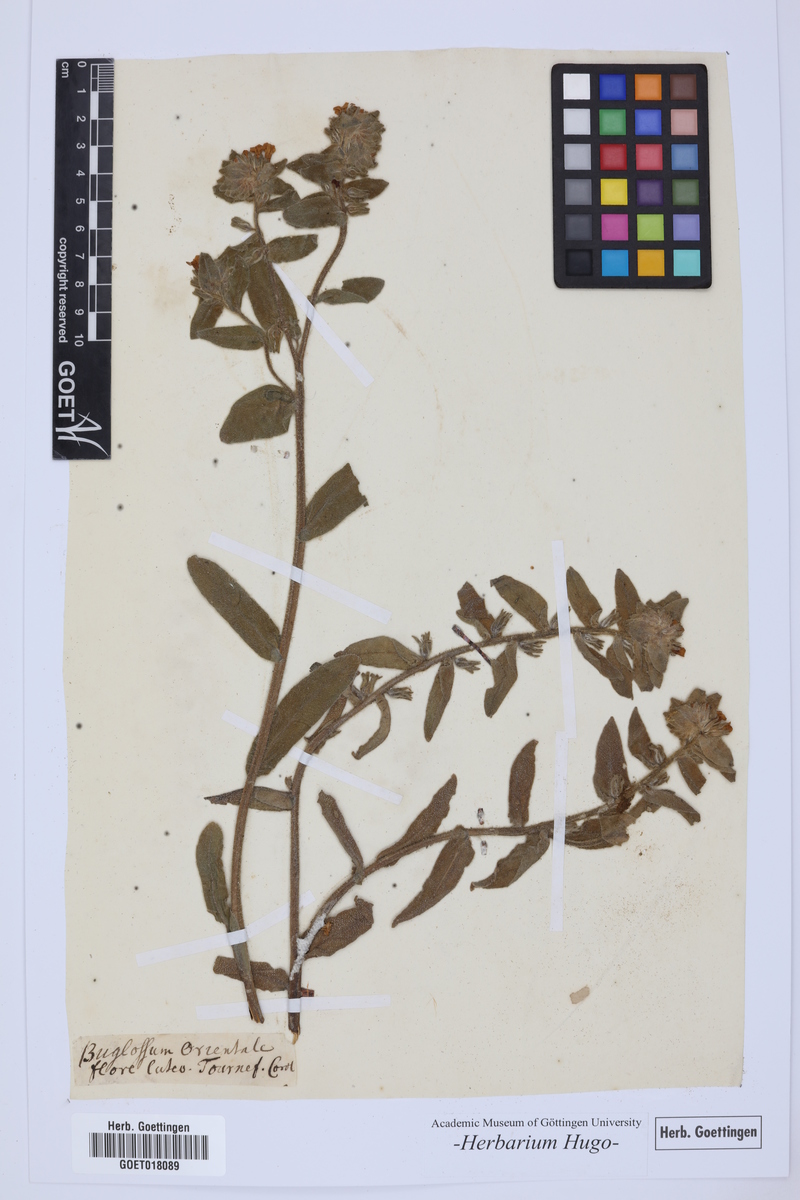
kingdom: Plantae
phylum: Tracheophyta
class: Magnoliopsida
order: Boraginales
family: Boraginaceae
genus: Alkanna
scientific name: Alkanna orientalis
